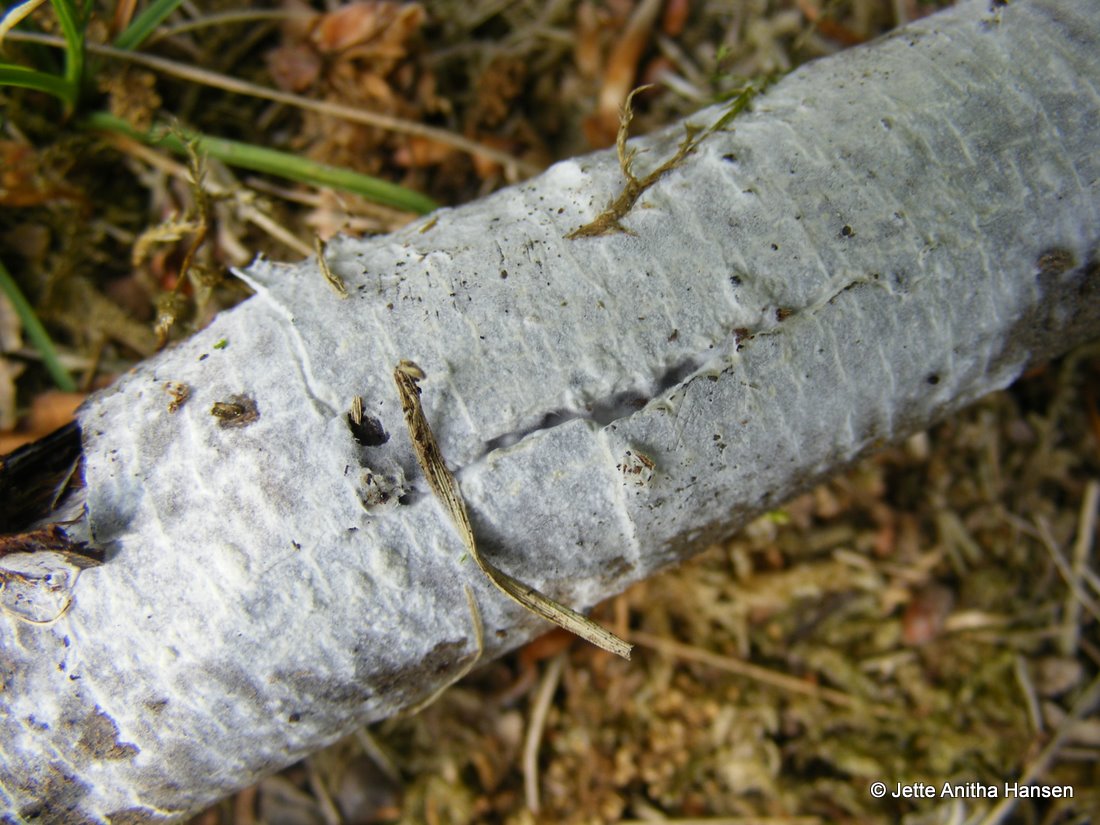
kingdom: Fungi
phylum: Basidiomycota
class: Agaricomycetes
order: Polyporales
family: Hyphodermataceae
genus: Hyphoderma
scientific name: Hyphoderma setigerum
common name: håret kalkskind
